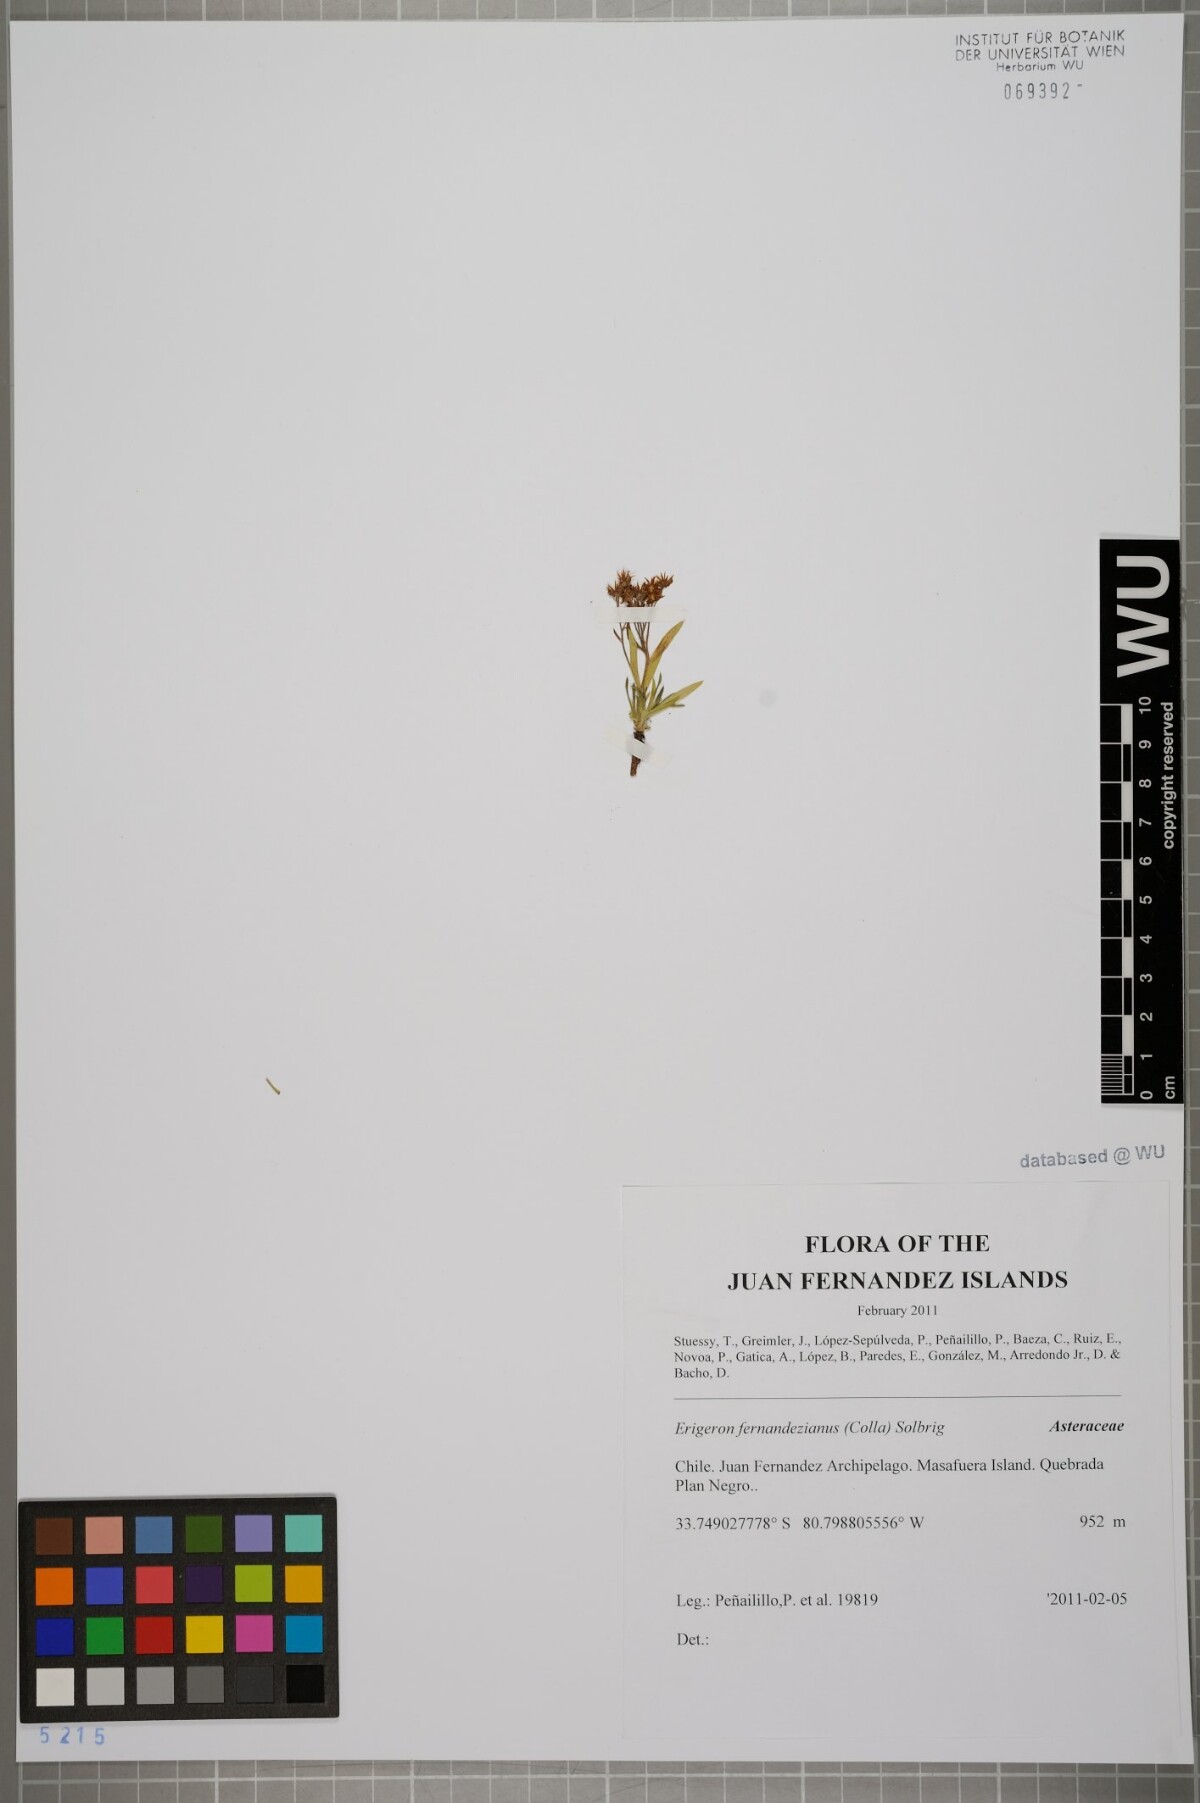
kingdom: Plantae
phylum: Tracheophyta
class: Magnoliopsida
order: Asterales
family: Asteraceae
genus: Erigeron
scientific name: Erigeron fernandezianus
